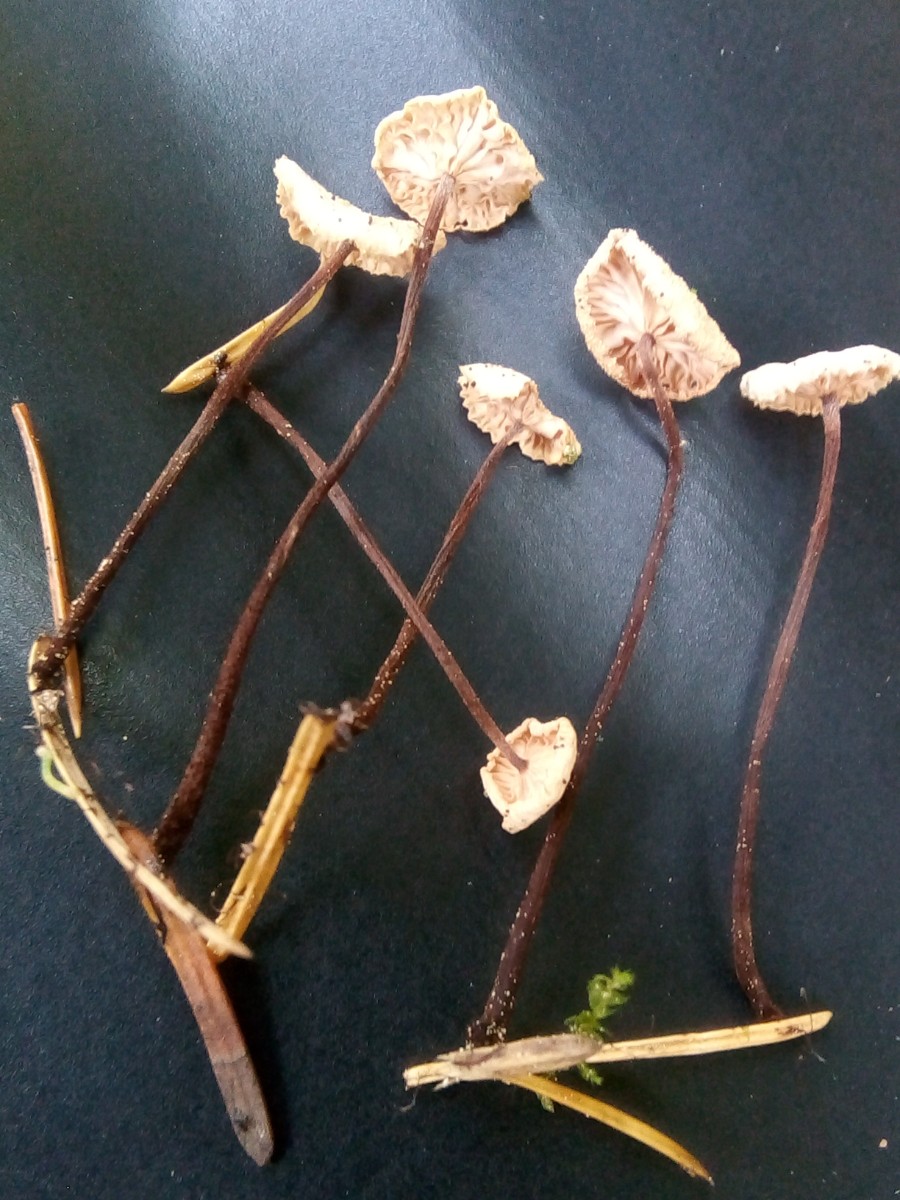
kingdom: Fungi
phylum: Basidiomycota
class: Agaricomycetes
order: Agaricales
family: Omphalotaceae
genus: Paragymnopus
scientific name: Paragymnopus perforans
